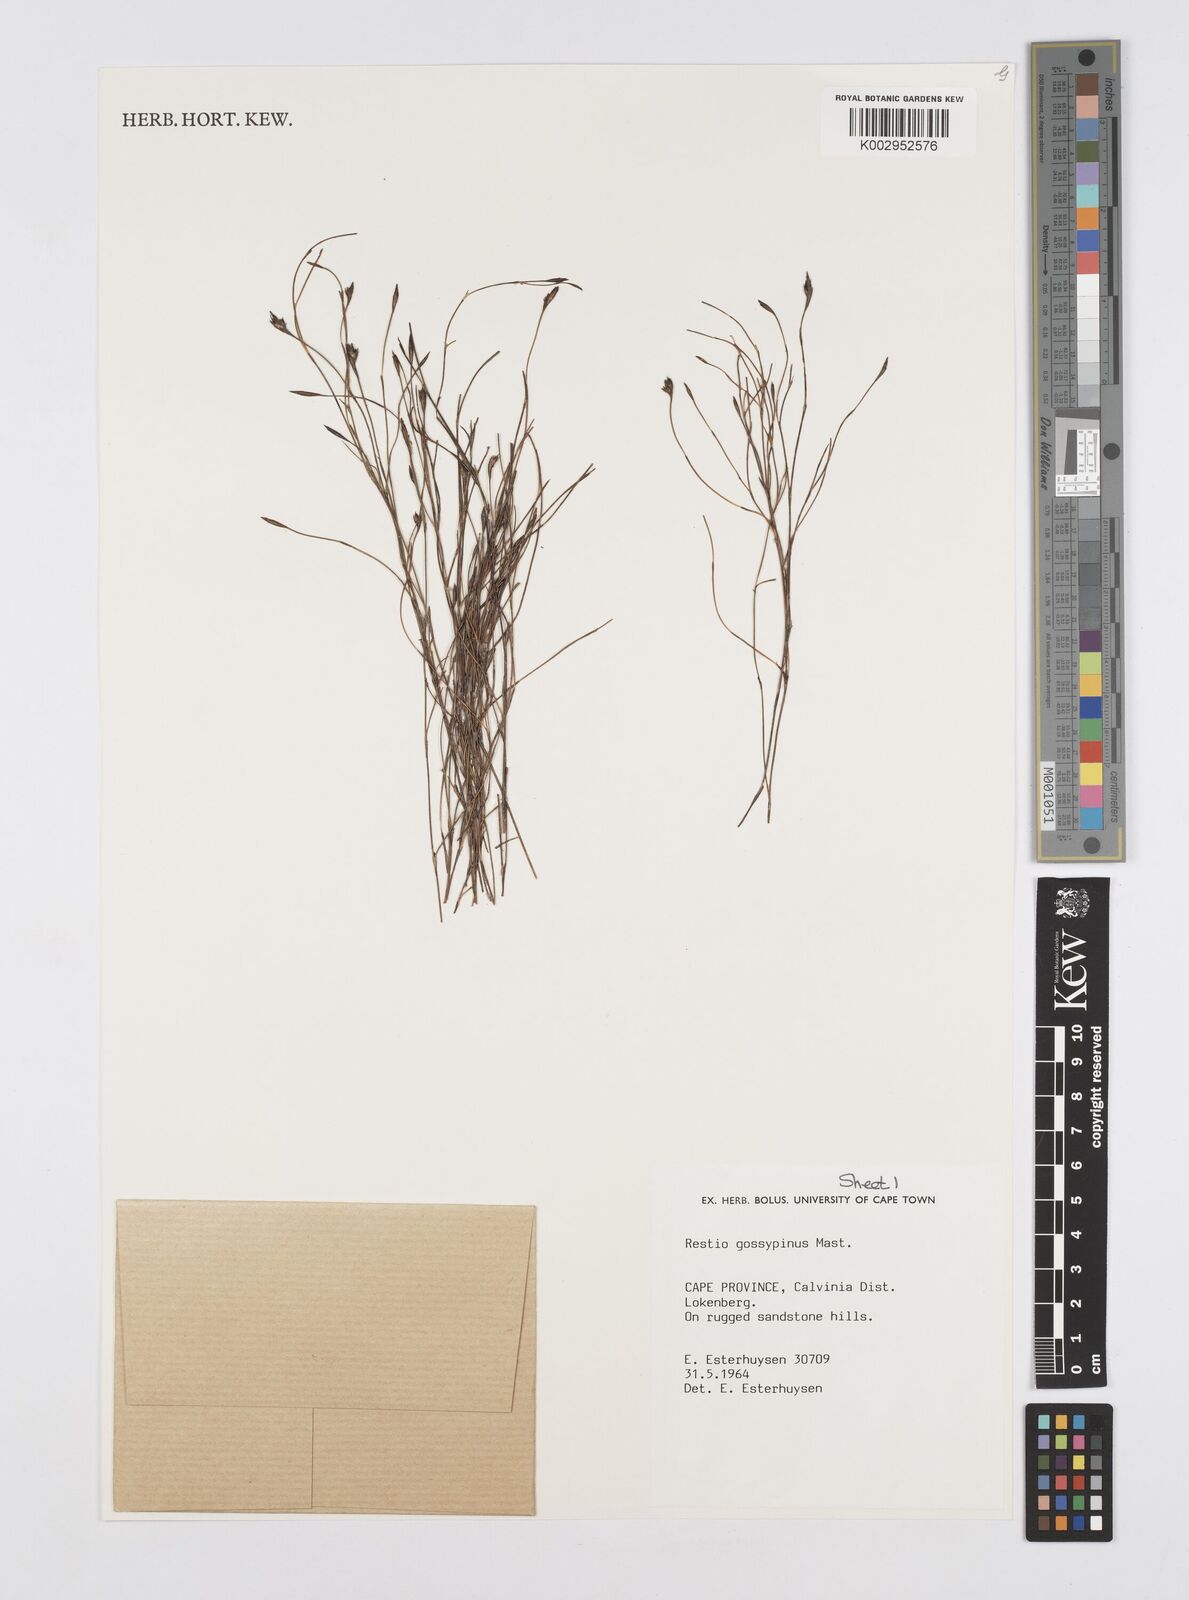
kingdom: Plantae
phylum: Tracheophyta
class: Liliopsida
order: Poales
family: Restionaceae
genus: Restio
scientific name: Restio gossypinus
